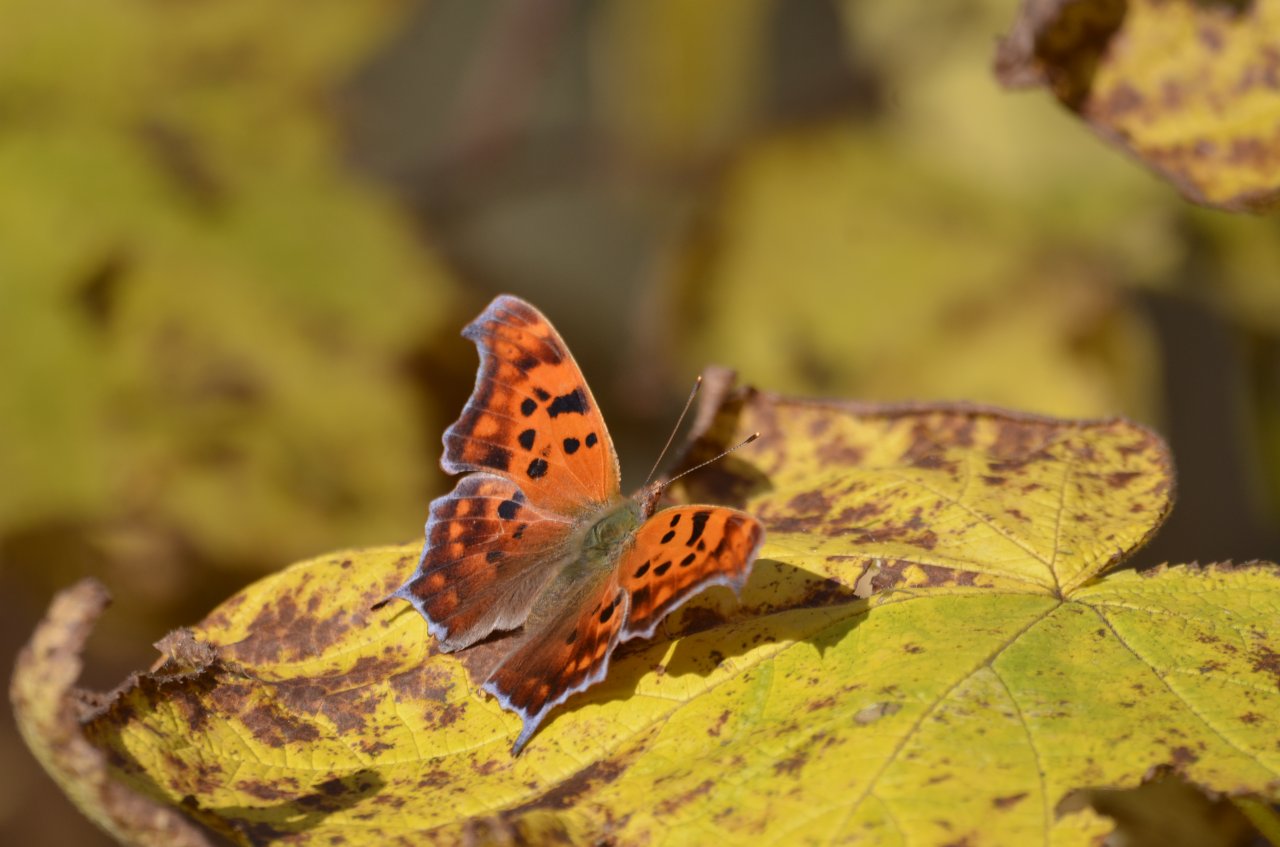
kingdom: Animalia
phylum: Arthropoda
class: Insecta
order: Lepidoptera
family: Nymphalidae
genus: Polygonia
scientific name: Polygonia interrogationis
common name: Question Mark
